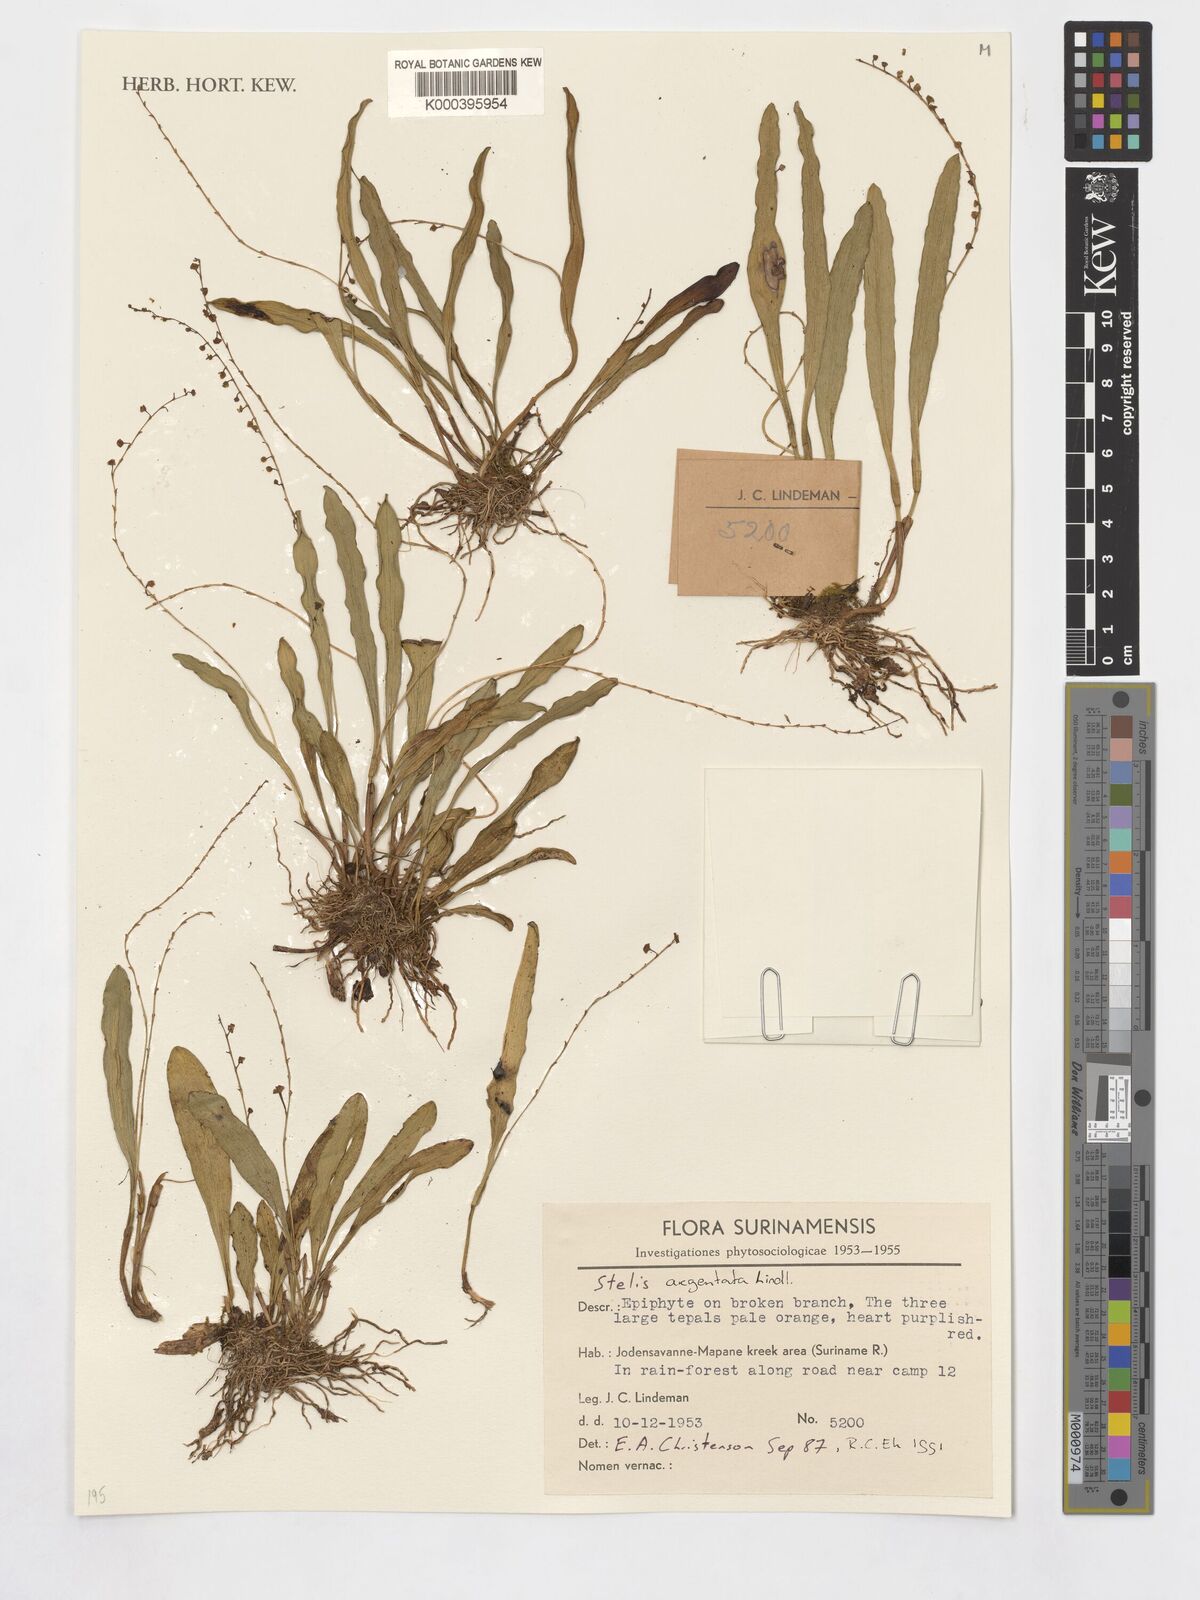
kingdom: Plantae
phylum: Tracheophyta
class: Liliopsida
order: Asparagales
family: Orchidaceae
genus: Stelis
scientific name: Stelis argentata
